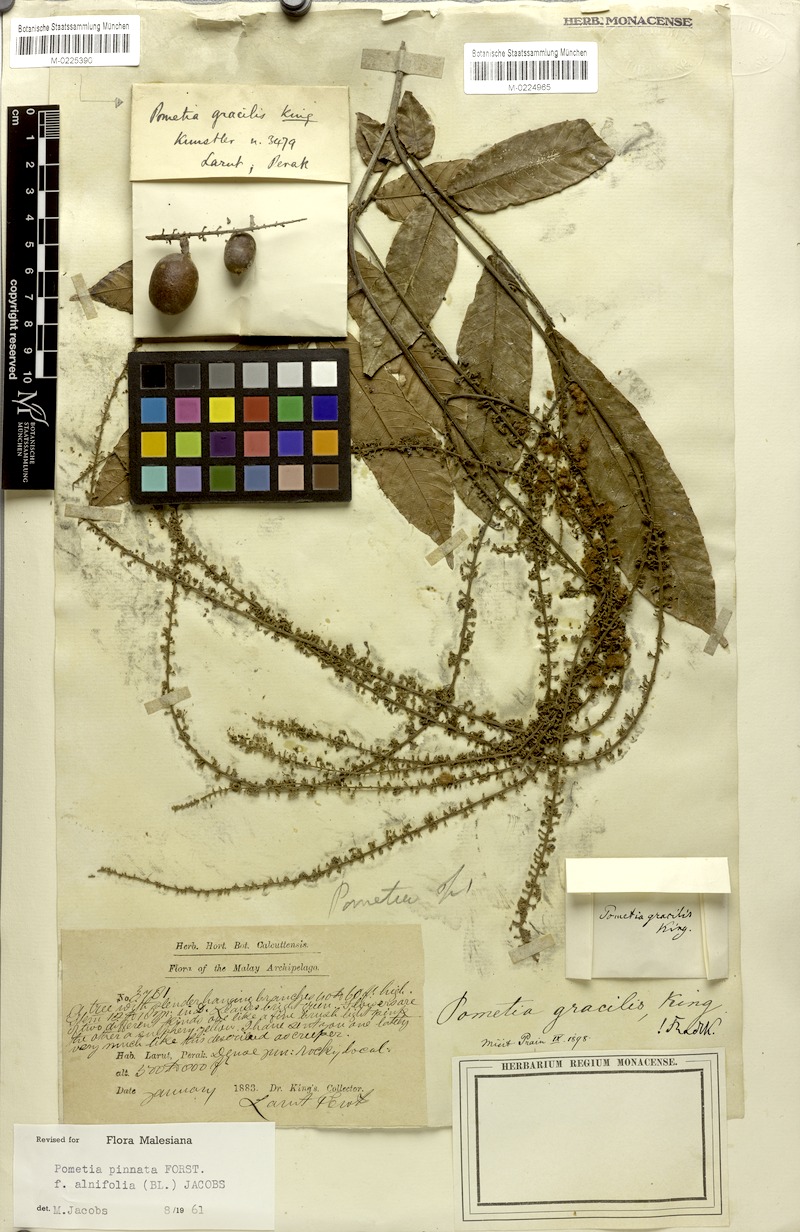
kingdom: Plantae
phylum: Tracheophyta
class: Magnoliopsida
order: Sapindales
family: Sapindaceae
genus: Pometia
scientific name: Pometia pinnata
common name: Oceanic lychee
